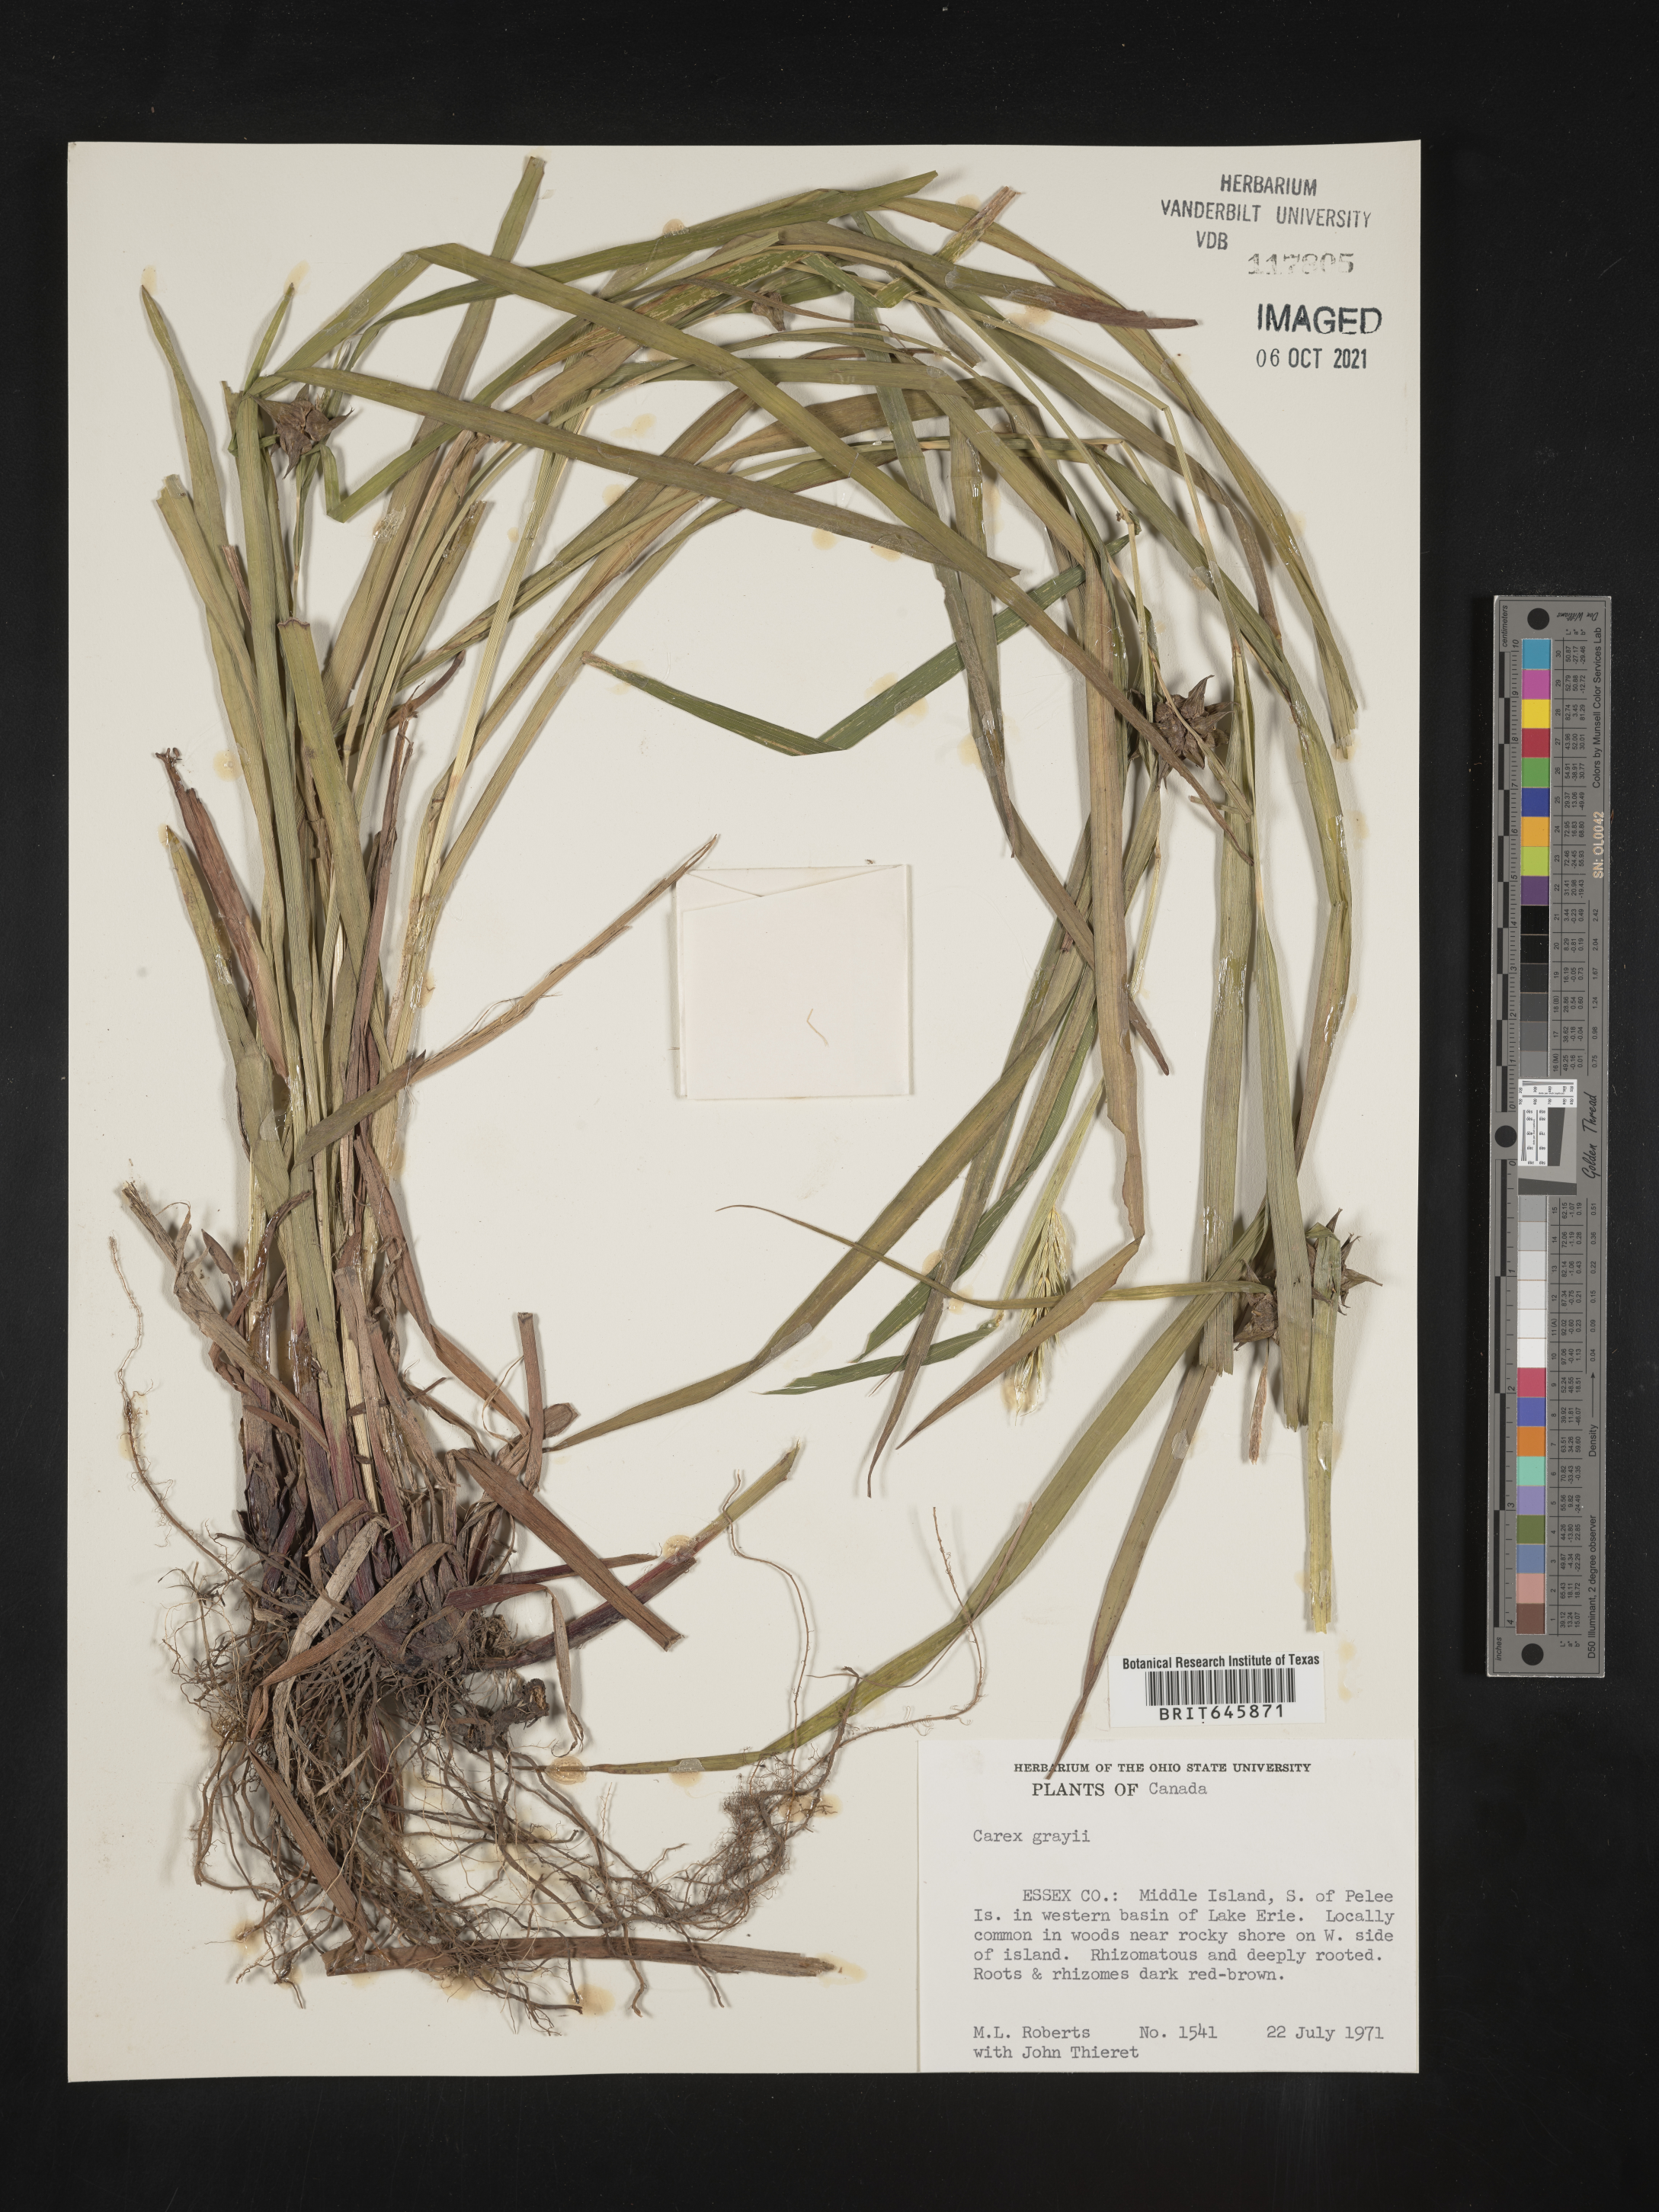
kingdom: Plantae
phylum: Tracheophyta
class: Liliopsida
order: Poales
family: Cyperaceae
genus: Carex
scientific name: Carex grayi
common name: Asa gray's sedge
